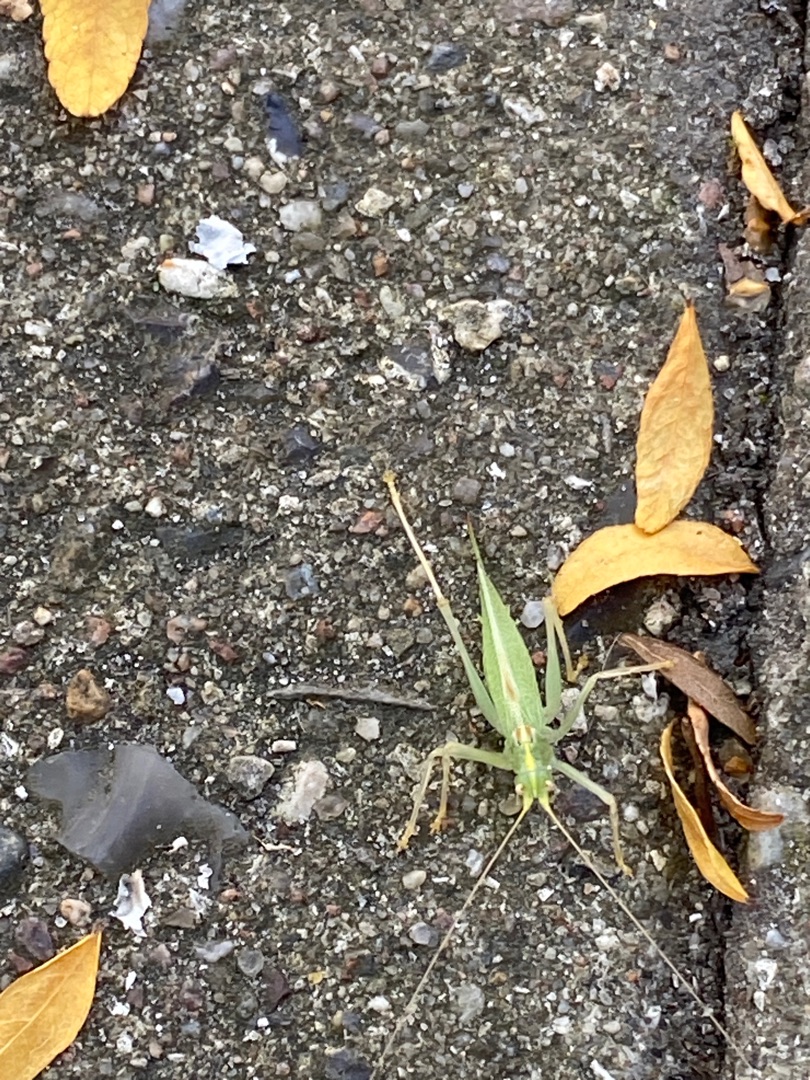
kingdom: Animalia
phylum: Arthropoda
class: Insecta
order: Orthoptera
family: Tettigoniidae
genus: Meconema
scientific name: Meconema thalassinum
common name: Egegræshoppe
